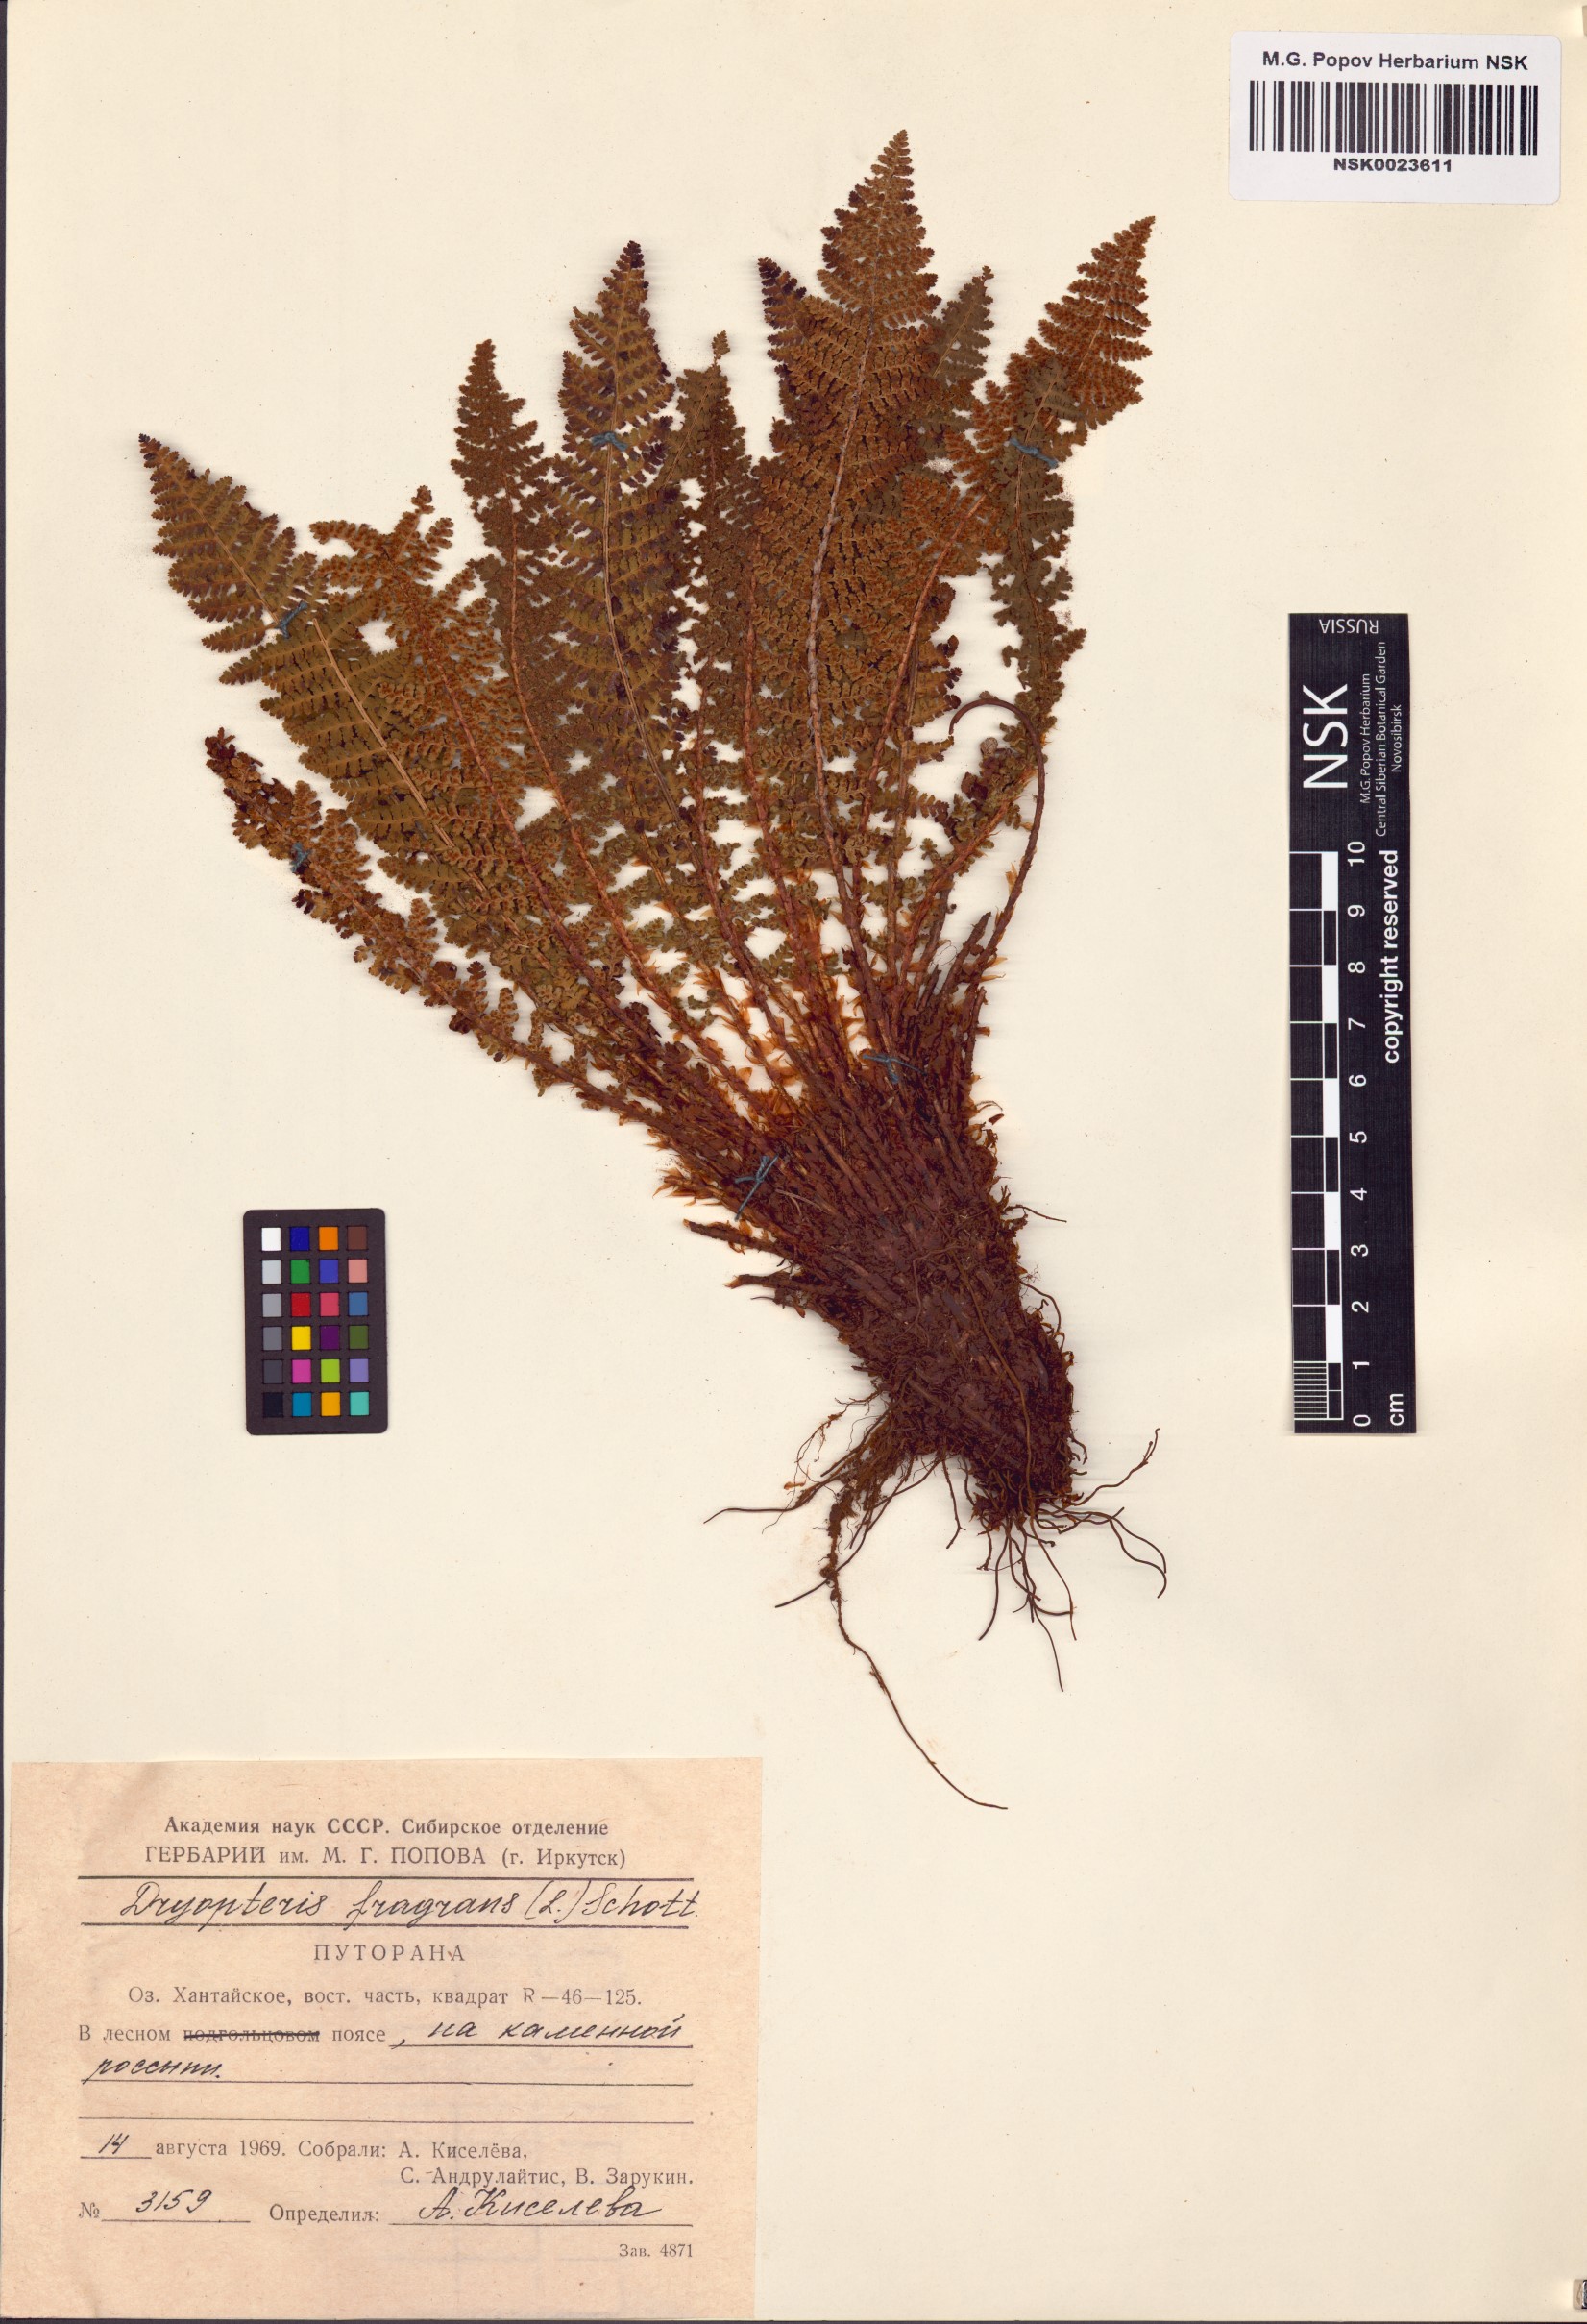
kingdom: Plantae
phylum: Tracheophyta
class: Polypodiopsida
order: Polypodiales
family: Dryopteridaceae
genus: Dryopteris
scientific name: Dryopteris fragrans
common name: Fragrant wood fern
